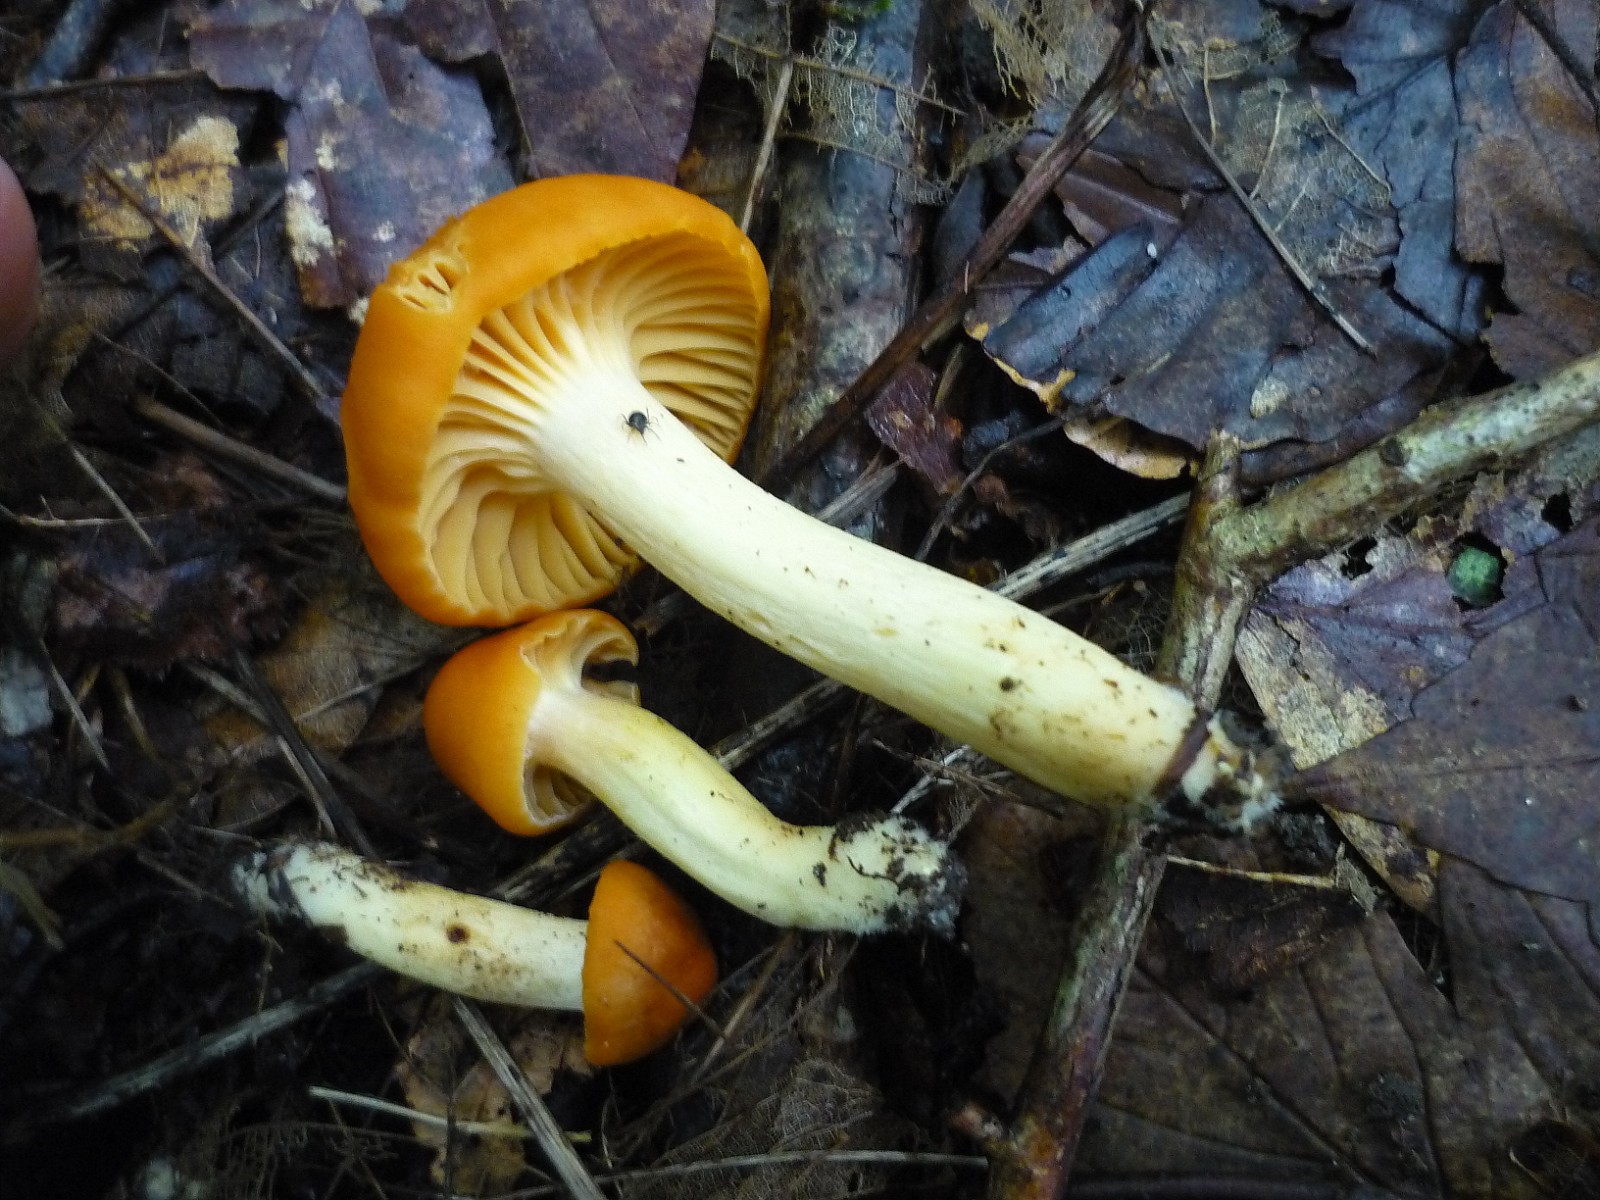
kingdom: Fungi
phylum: Basidiomycota
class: Agaricomycetes
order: Agaricales
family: Hygrophoraceae
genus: Cuphophyllus
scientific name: Cuphophyllus pratensis
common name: eng-vokshat
